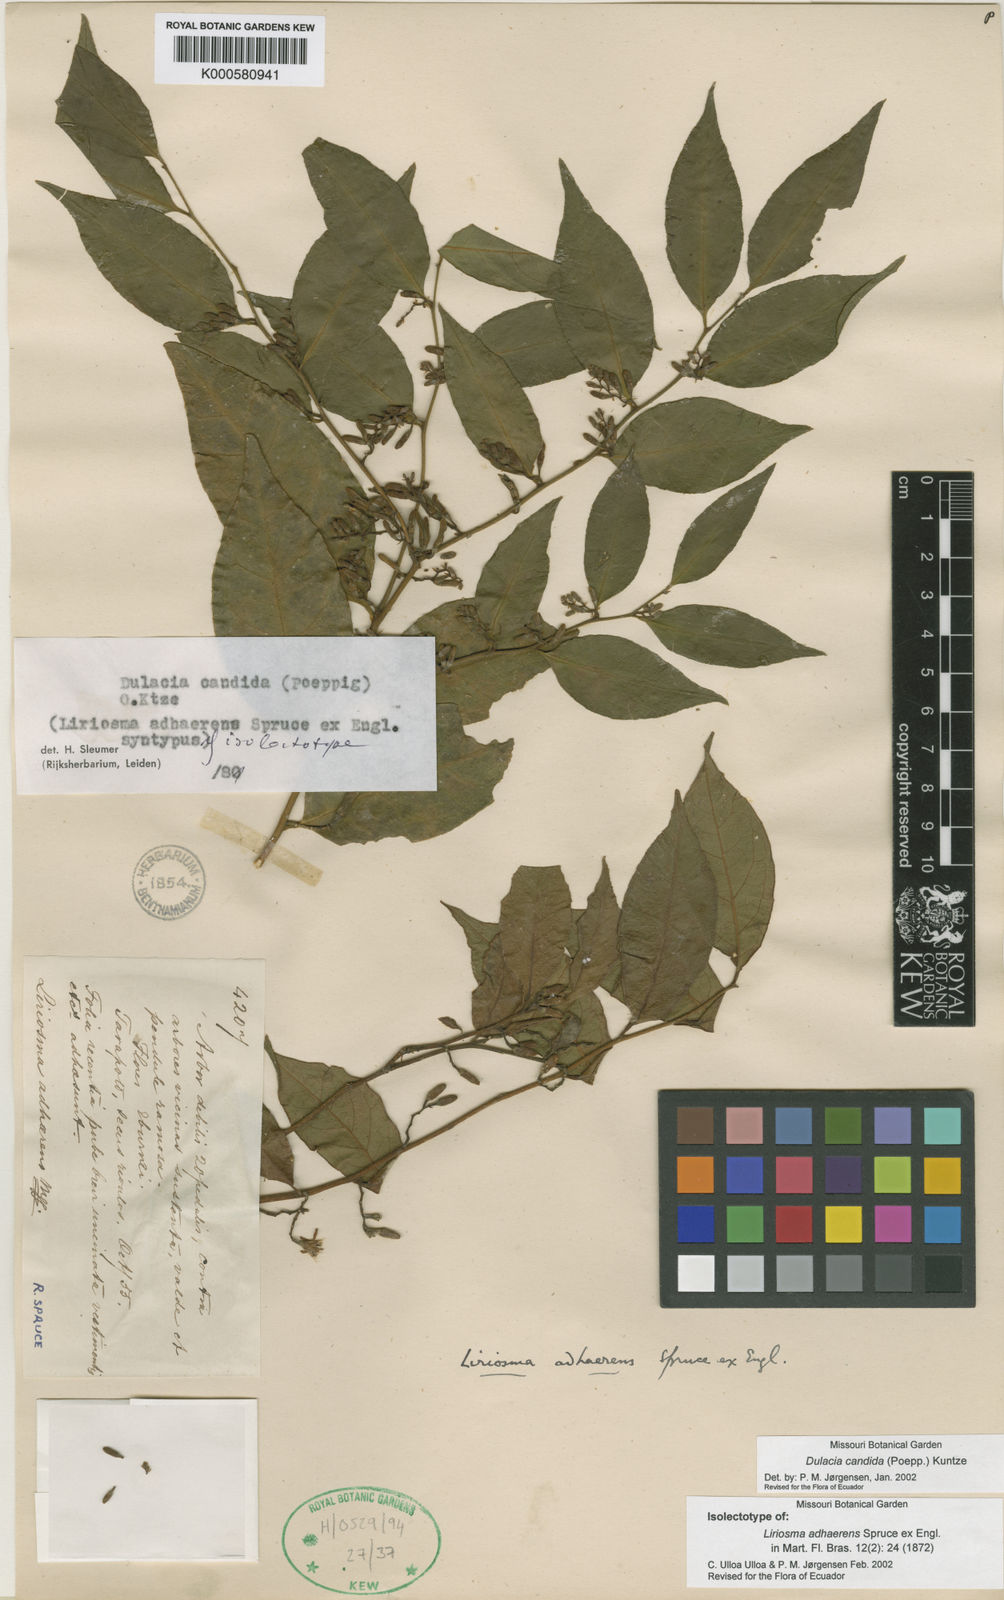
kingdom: Plantae
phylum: Tracheophyta
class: Magnoliopsida
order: Santalales
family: Olacaceae
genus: Dulacia
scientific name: Dulacia candida
